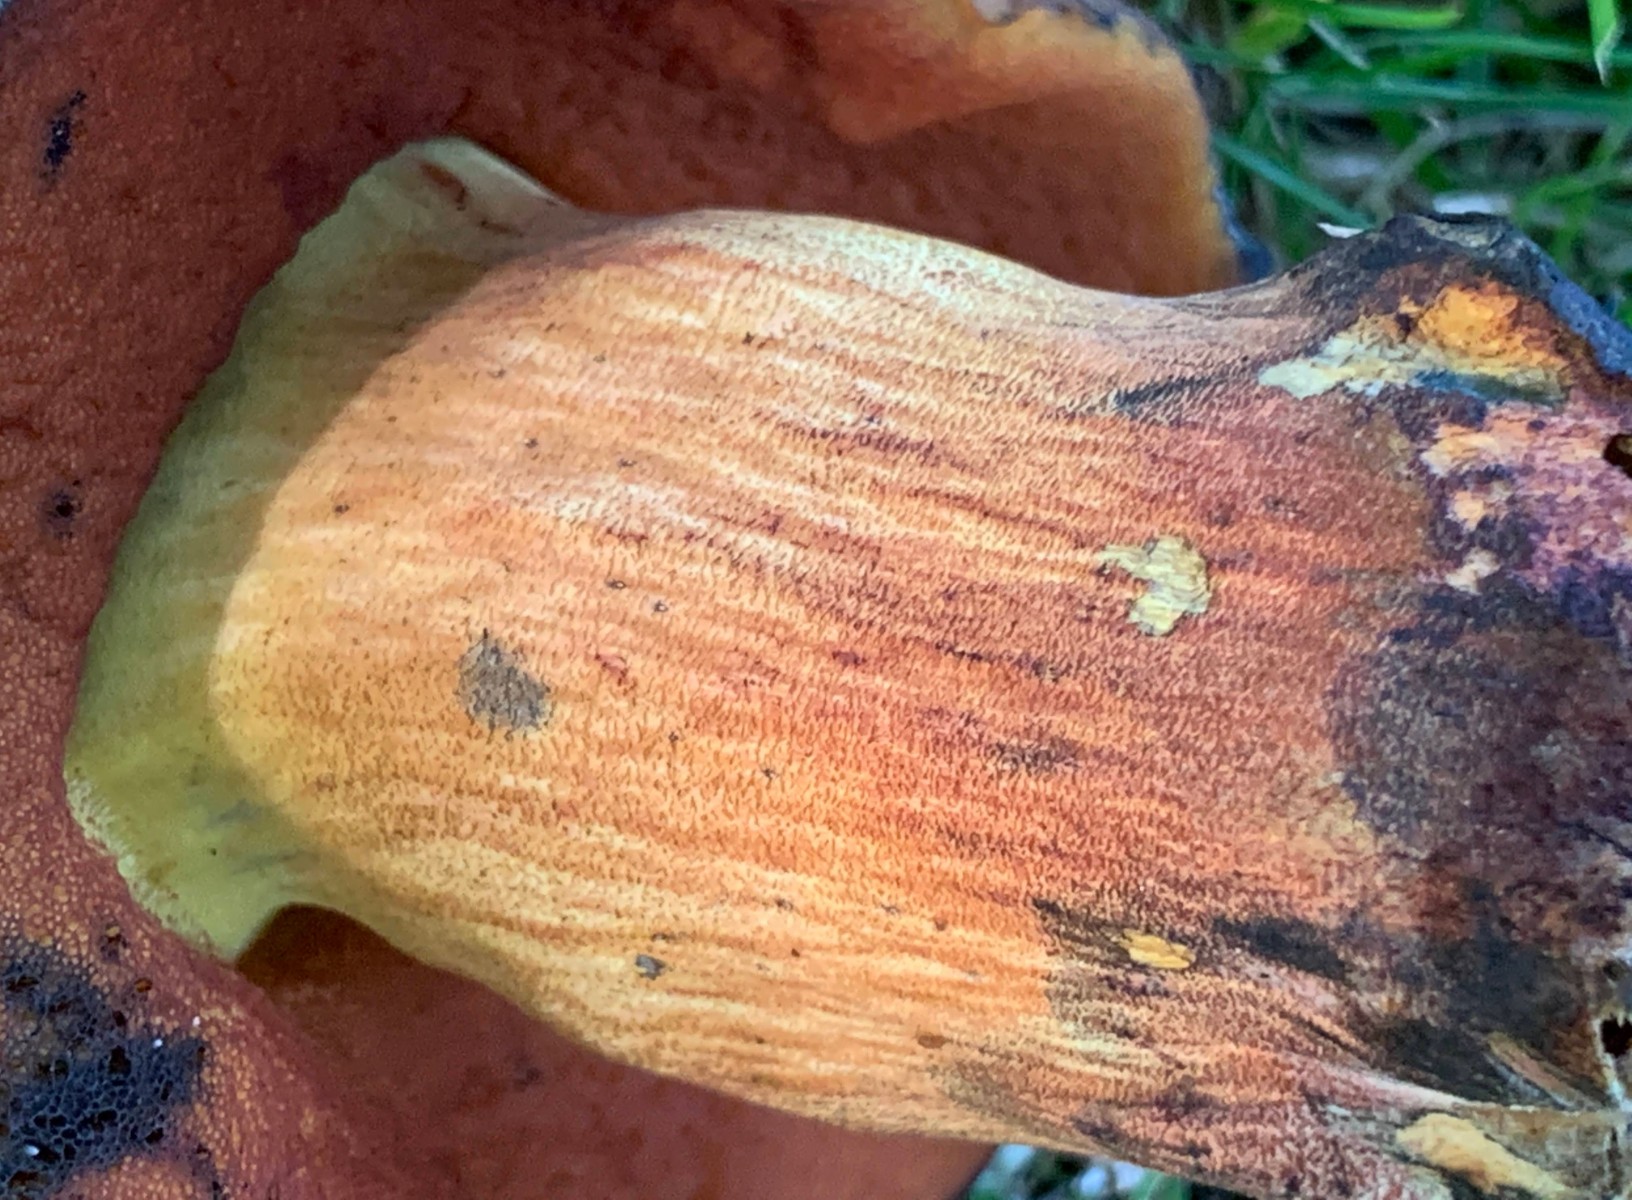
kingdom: Fungi
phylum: Basidiomycota
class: Agaricomycetes
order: Boletales
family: Boletaceae
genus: Neoboletus
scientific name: Neoboletus xanthopus
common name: finprikket indigorørhat
